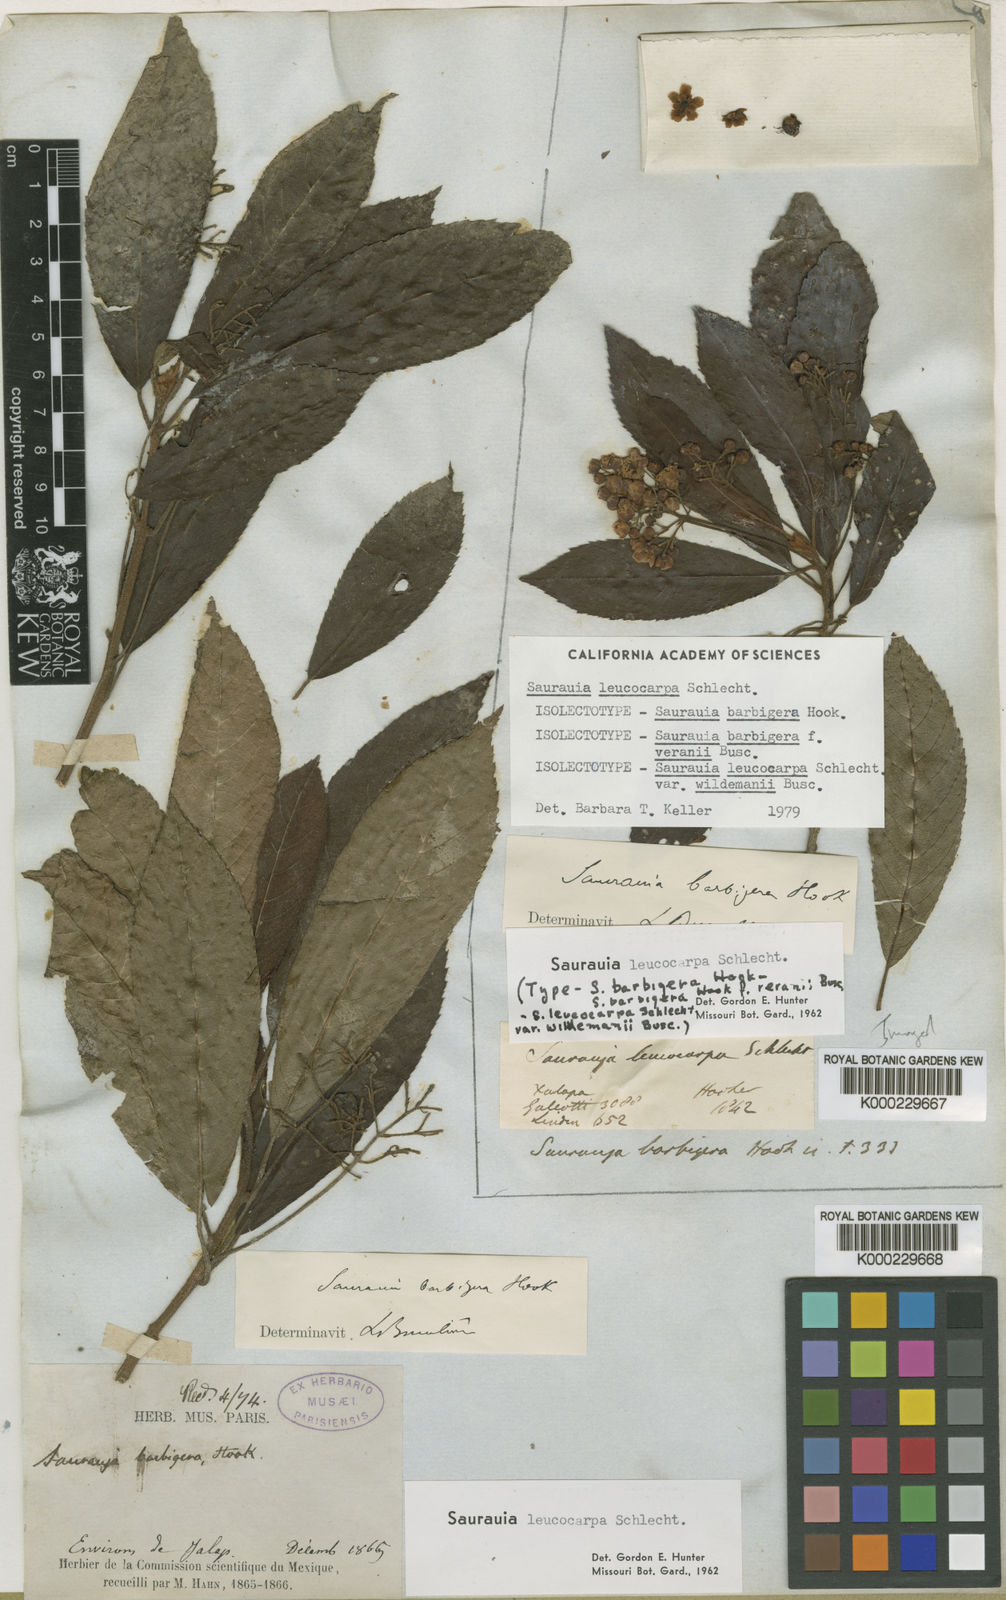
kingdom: Plantae
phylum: Tracheophyta
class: Magnoliopsida
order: Ericales
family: Actinidiaceae
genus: Saurauia
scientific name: Saurauia leucocarpa
